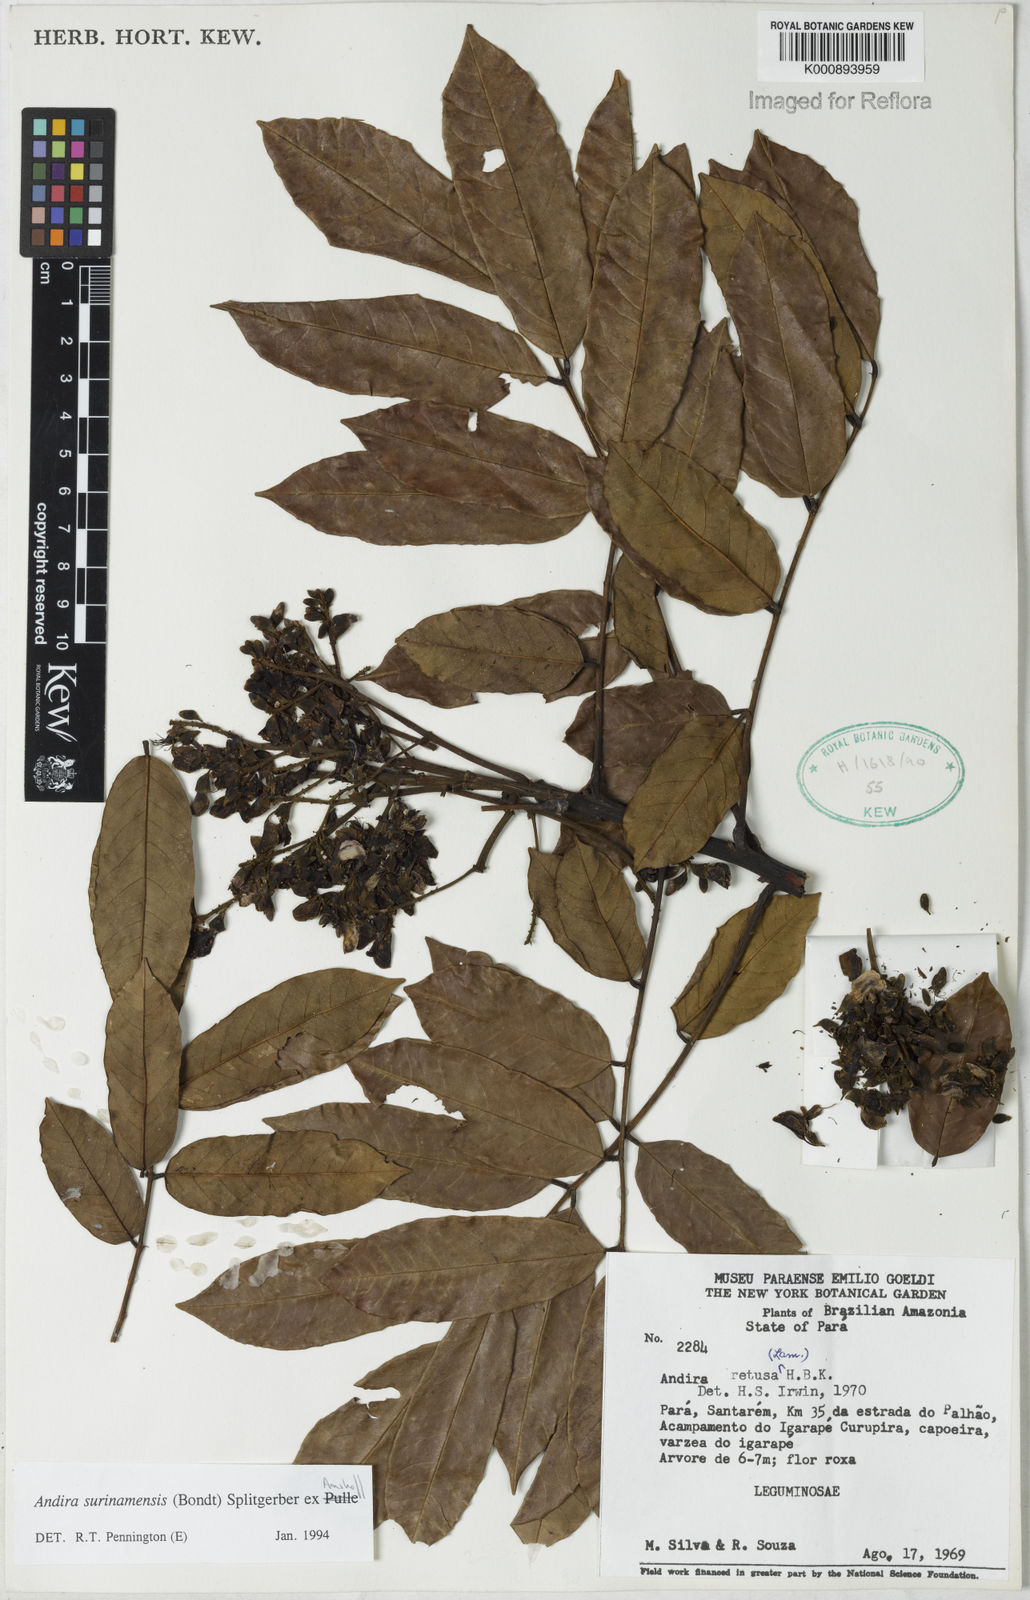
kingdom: Plantae
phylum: Tracheophyta
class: Magnoliopsida
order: Fabales
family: Fabaceae
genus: Andira
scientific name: Andira
